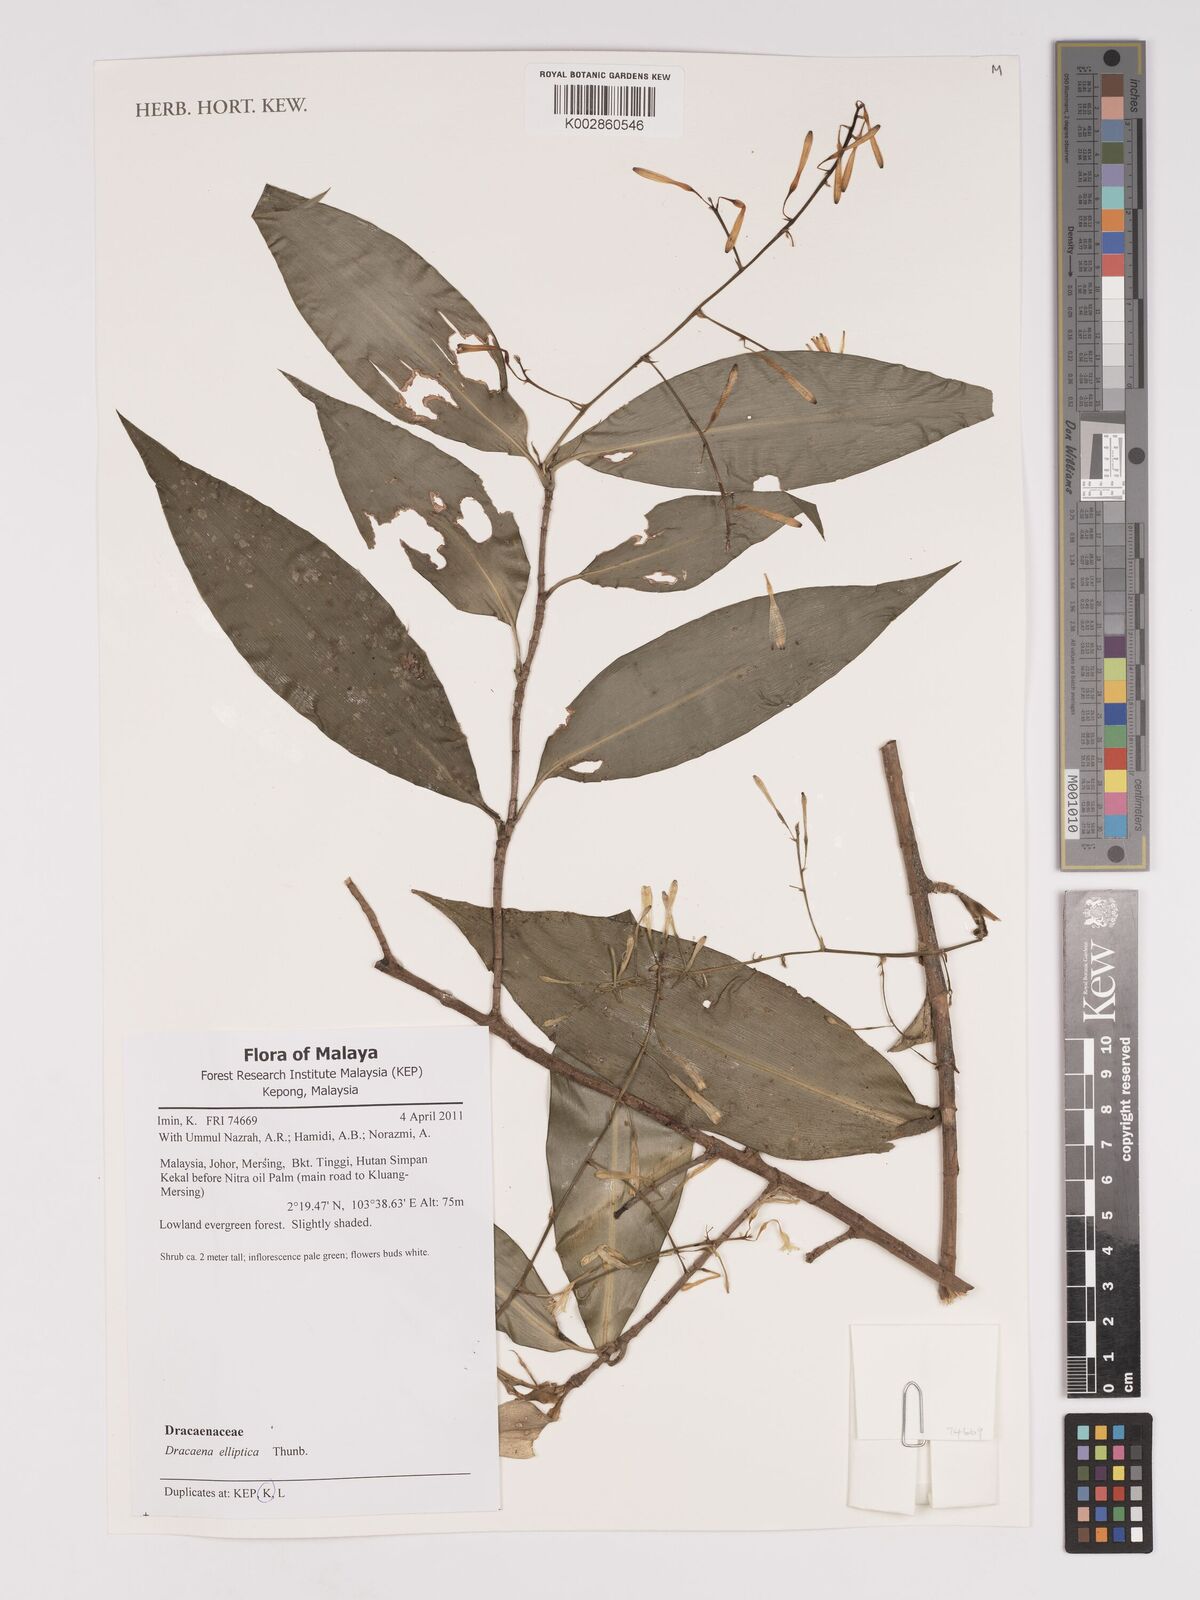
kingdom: Plantae
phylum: Tracheophyta
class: Liliopsida
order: Asparagales
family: Asparagaceae
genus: Dracaena
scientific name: Dracaena elliptica
